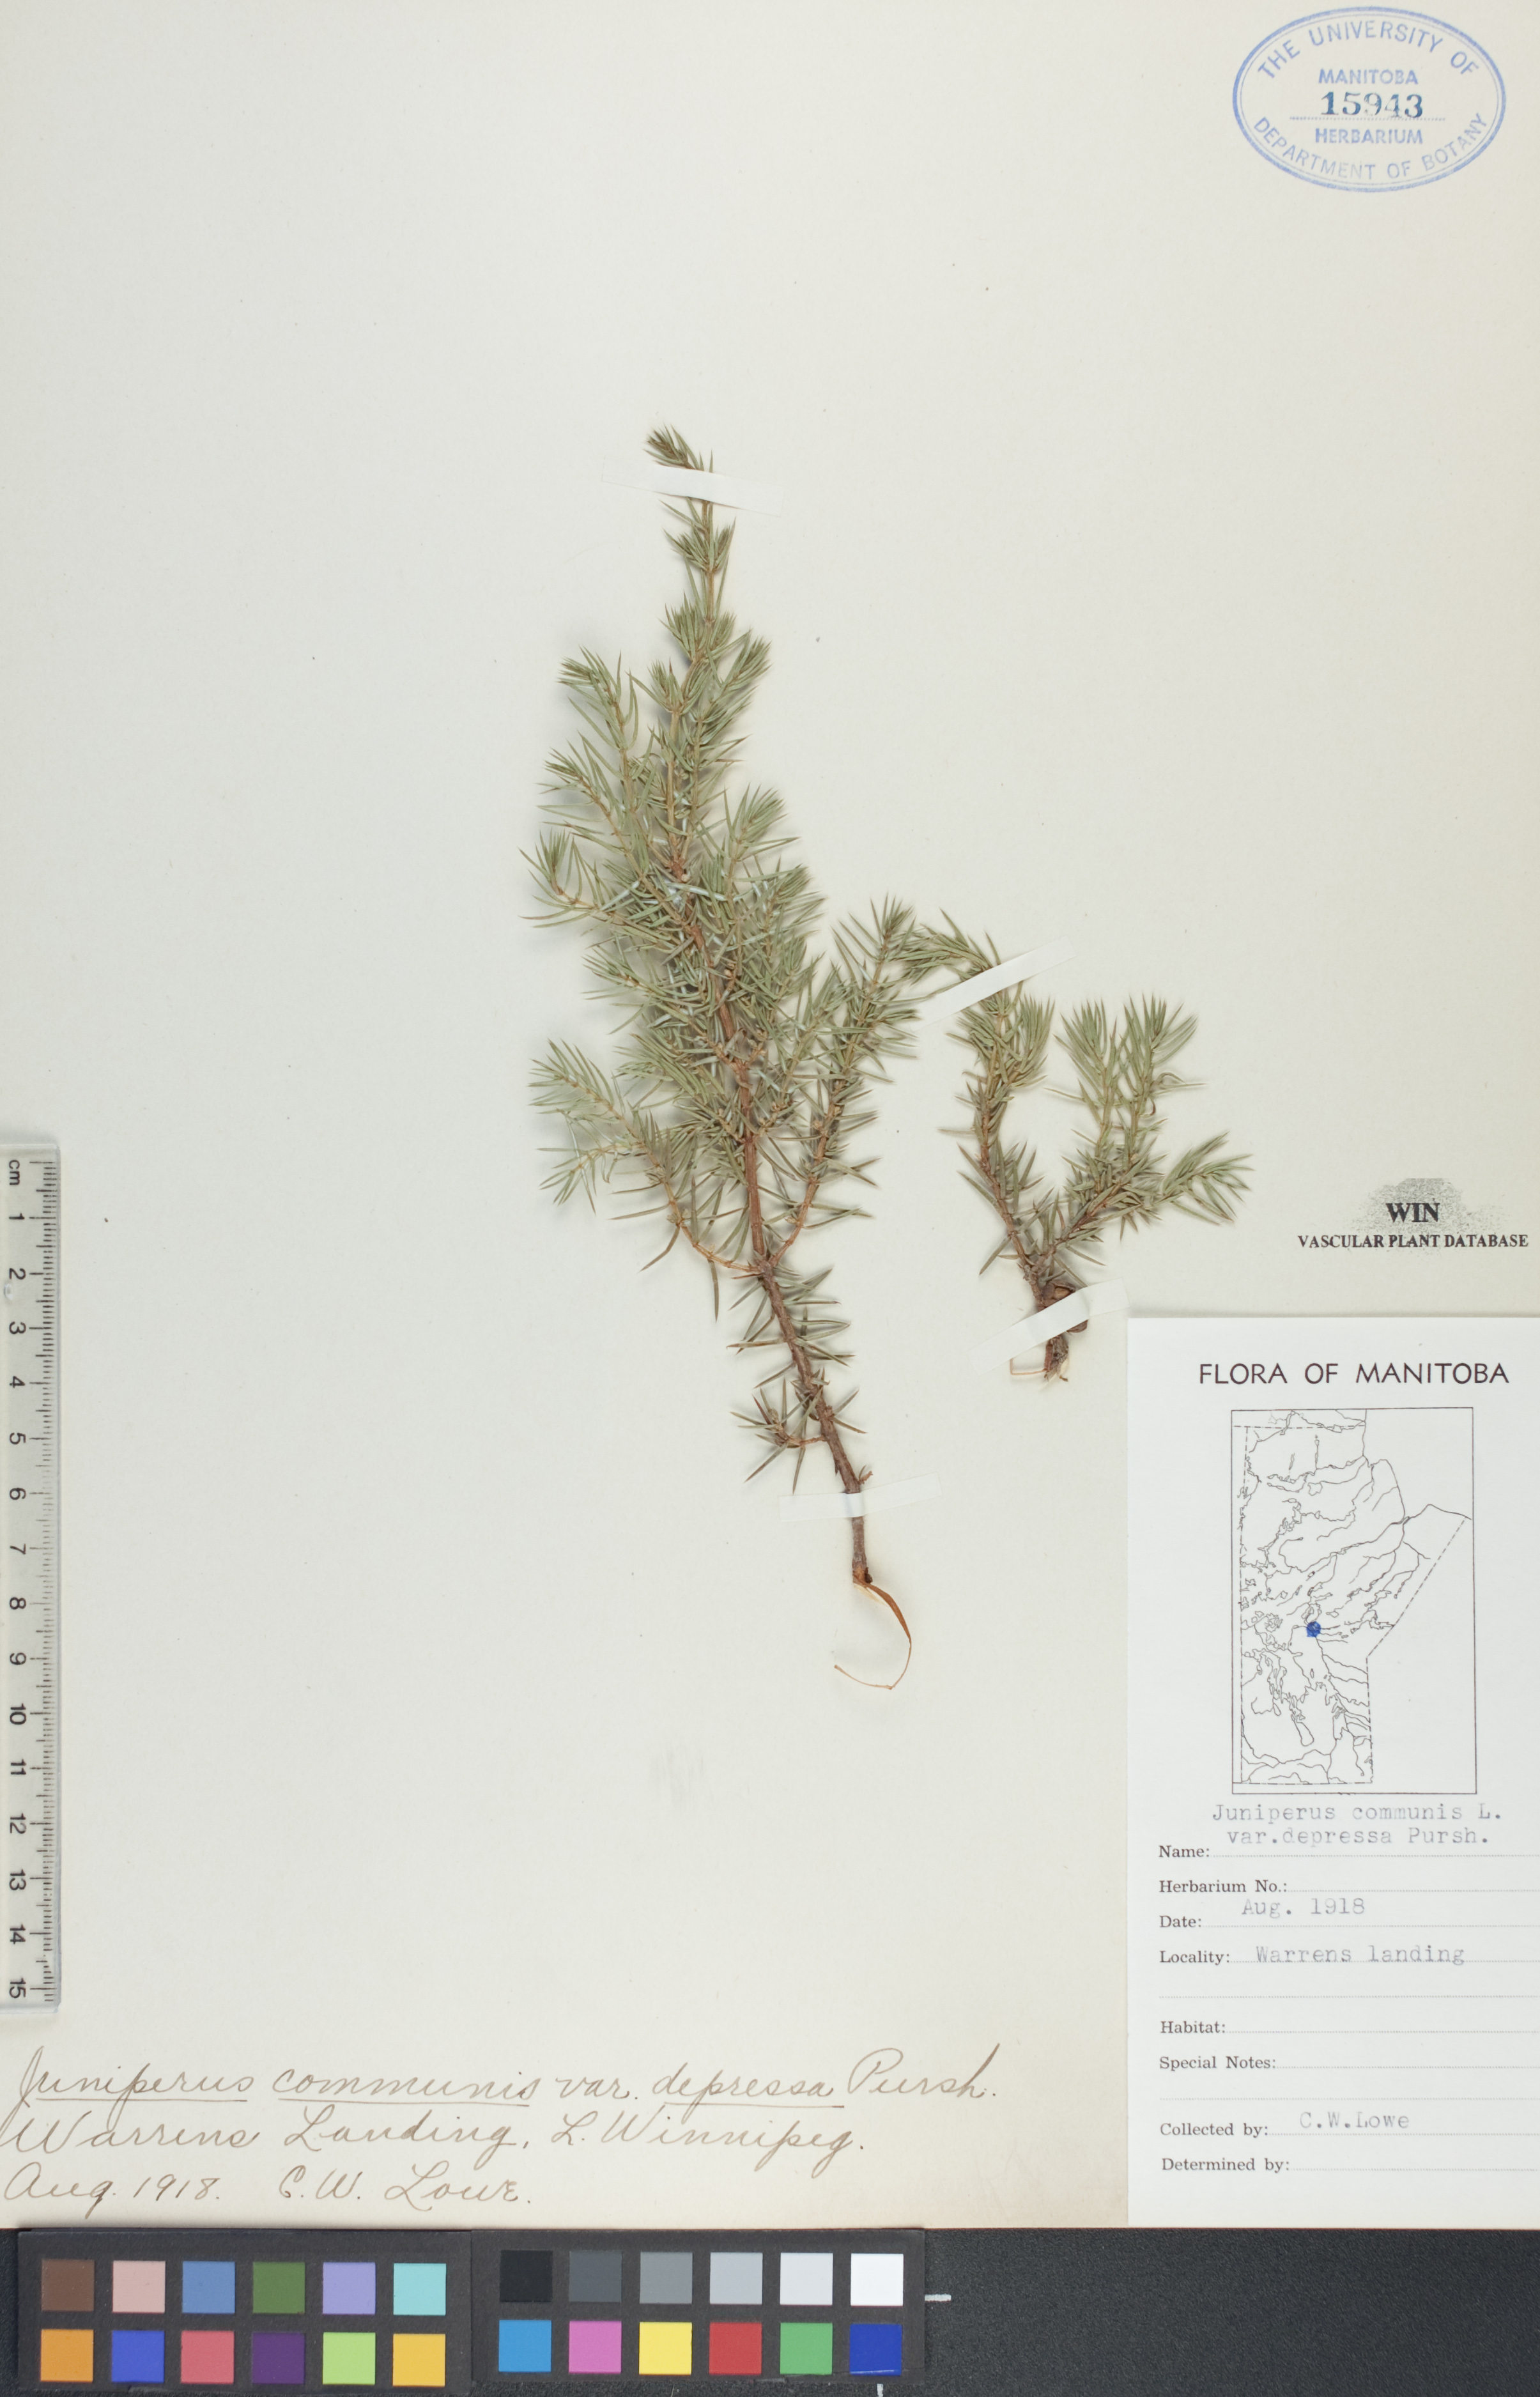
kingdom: Plantae
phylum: Tracheophyta
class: Pinopsida
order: Pinales
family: Cupressaceae
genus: Juniperus
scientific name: Juniperus communis
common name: Common juniper
